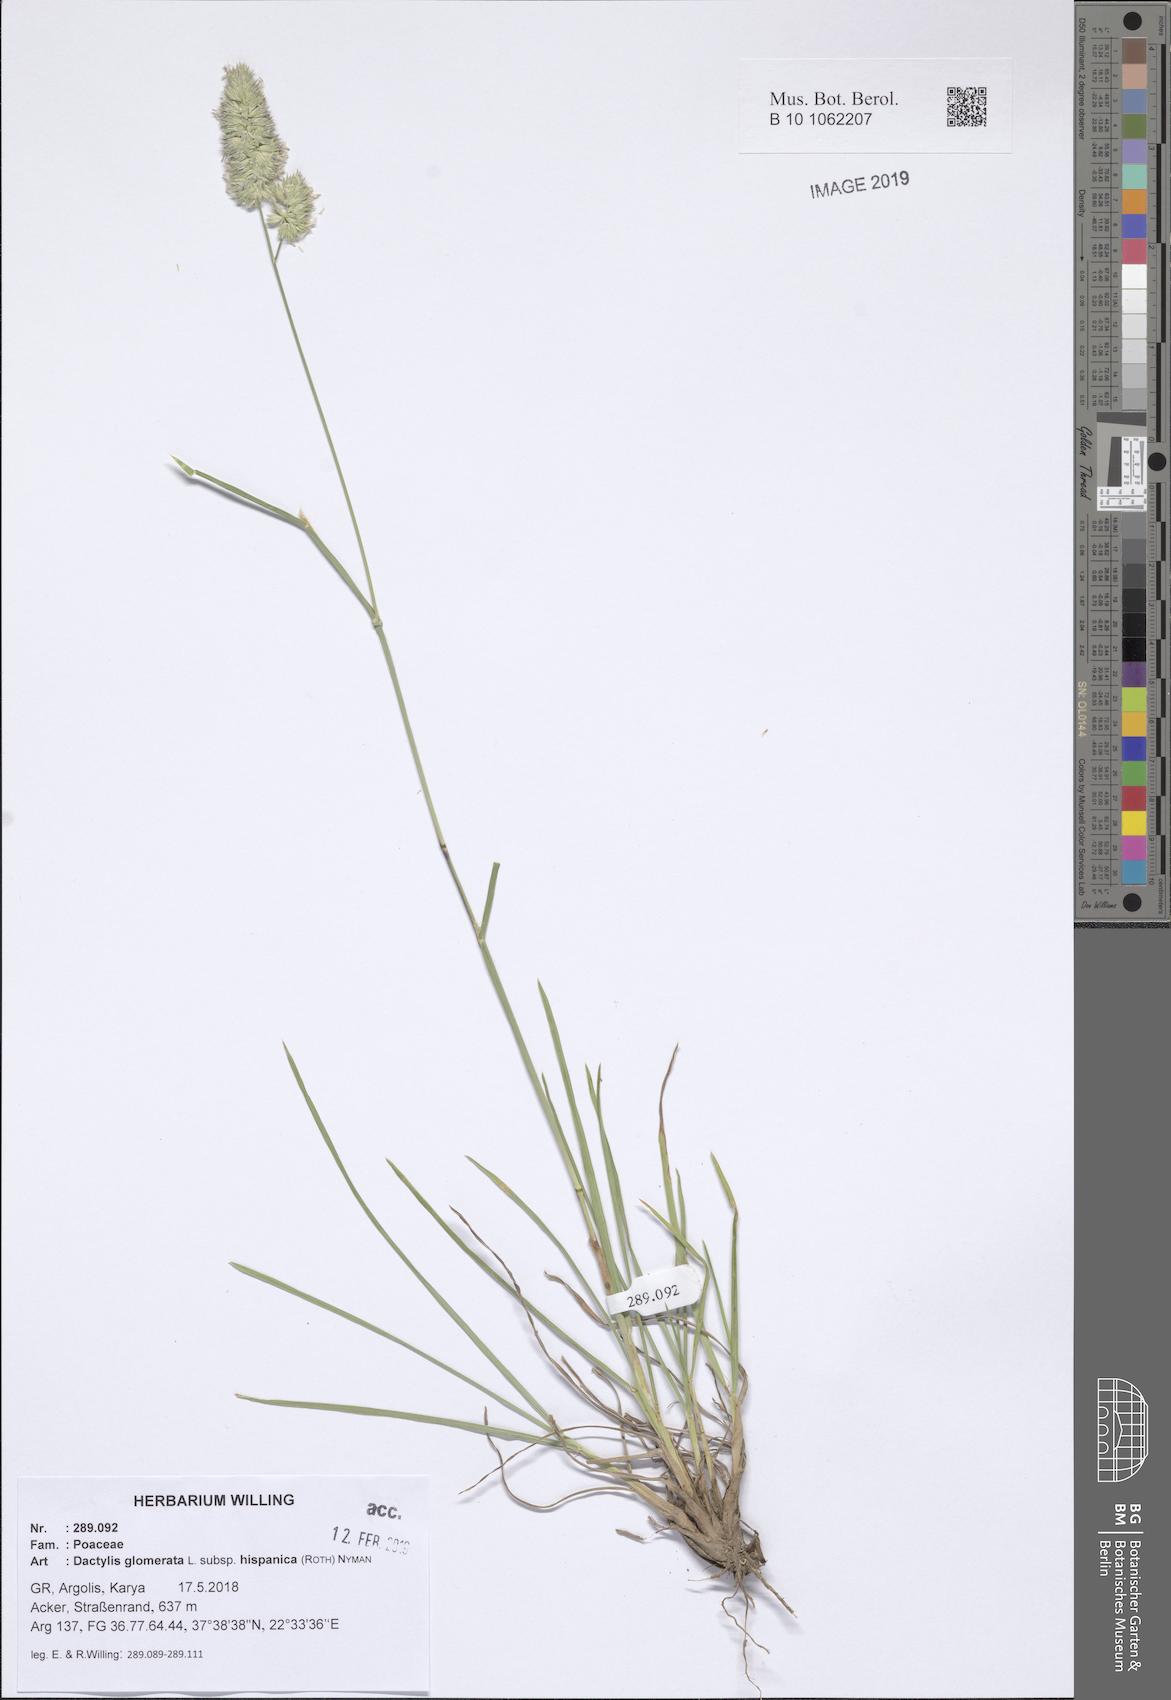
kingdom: Plantae
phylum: Tracheophyta
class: Liliopsida
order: Poales
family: Poaceae
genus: Dactylis
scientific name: Dactylis glomerata
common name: Orchardgrass
